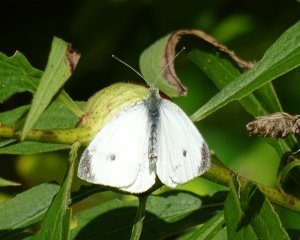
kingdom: Animalia
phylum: Arthropoda
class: Insecta
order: Lepidoptera
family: Pieridae
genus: Pieris
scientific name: Pieris rapae
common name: Cabbage White
